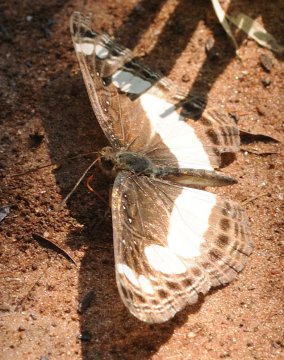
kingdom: Animalia
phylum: Arthropoda
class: Insecta
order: Lepidoptera
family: Nymphalidae
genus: Neptis
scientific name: Neptis saclava
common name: Spotted Sailer
